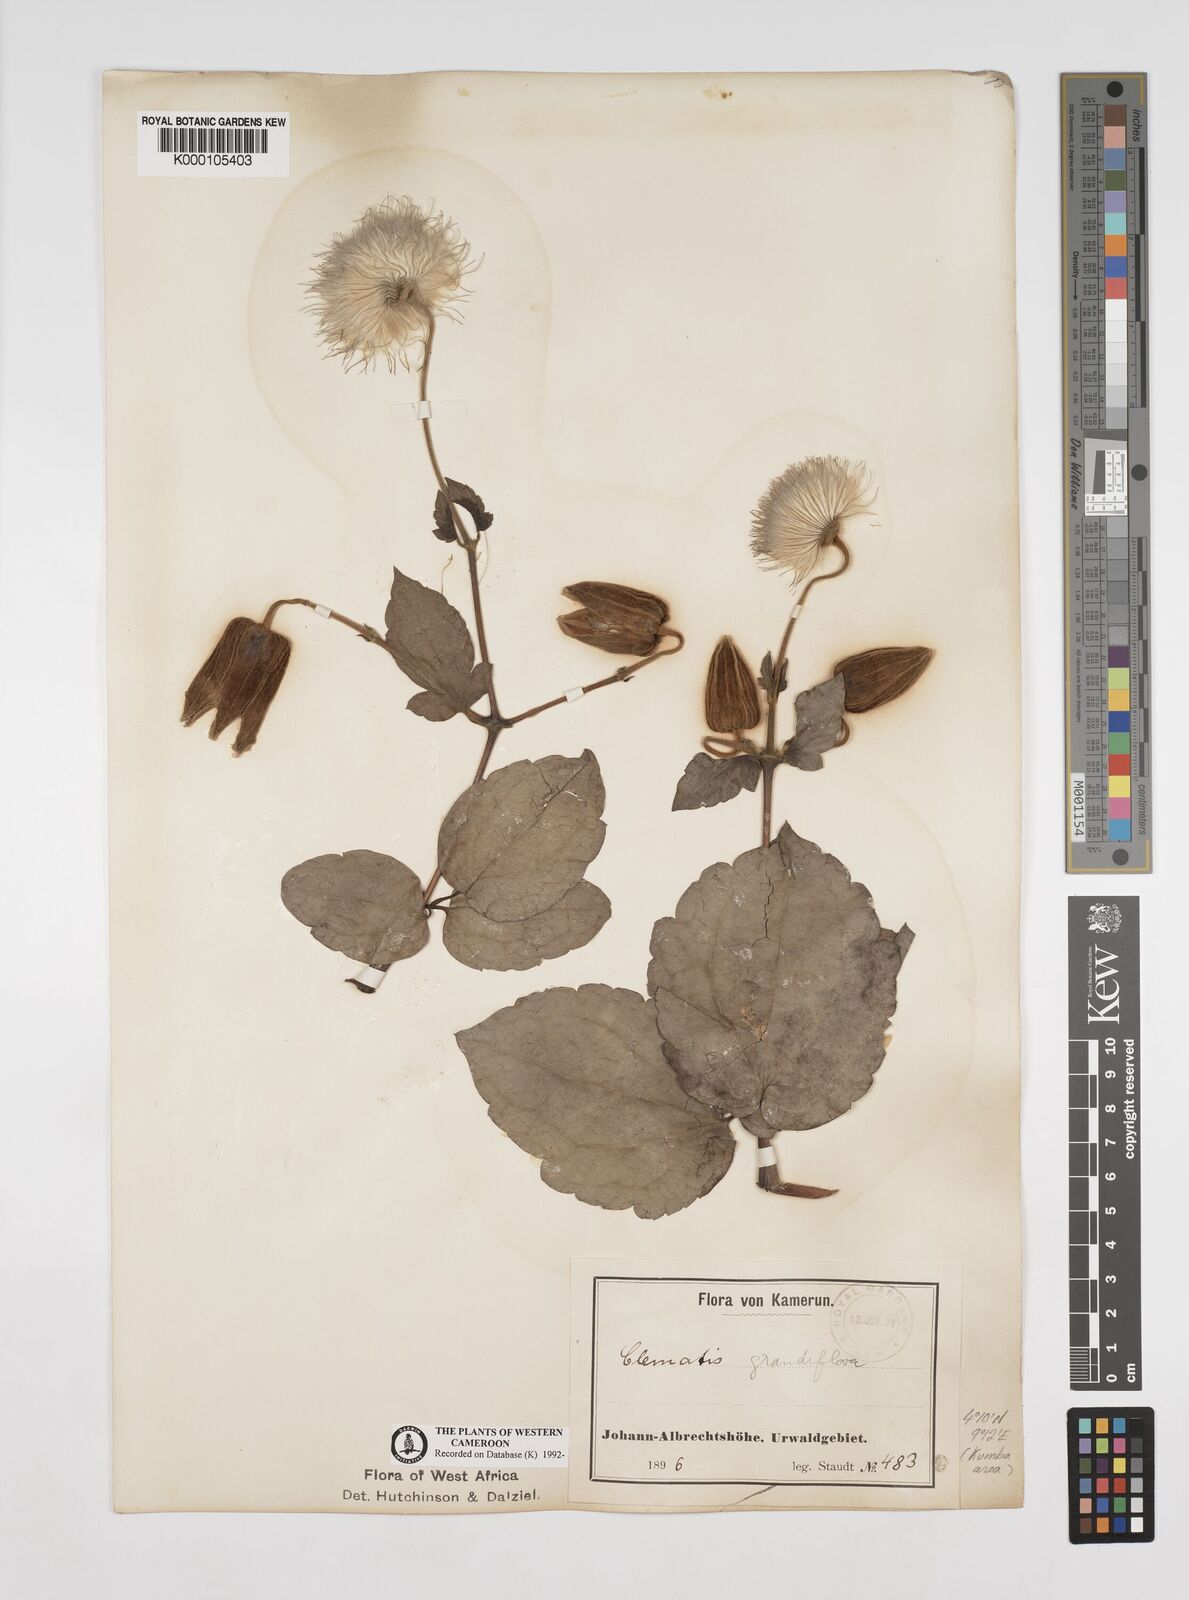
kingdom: Plantae
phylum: Tracheophyta
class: Magnoliopsida
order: Ranunculales
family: Ranunculaceae
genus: Clematis
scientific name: Clematis grandiflora
